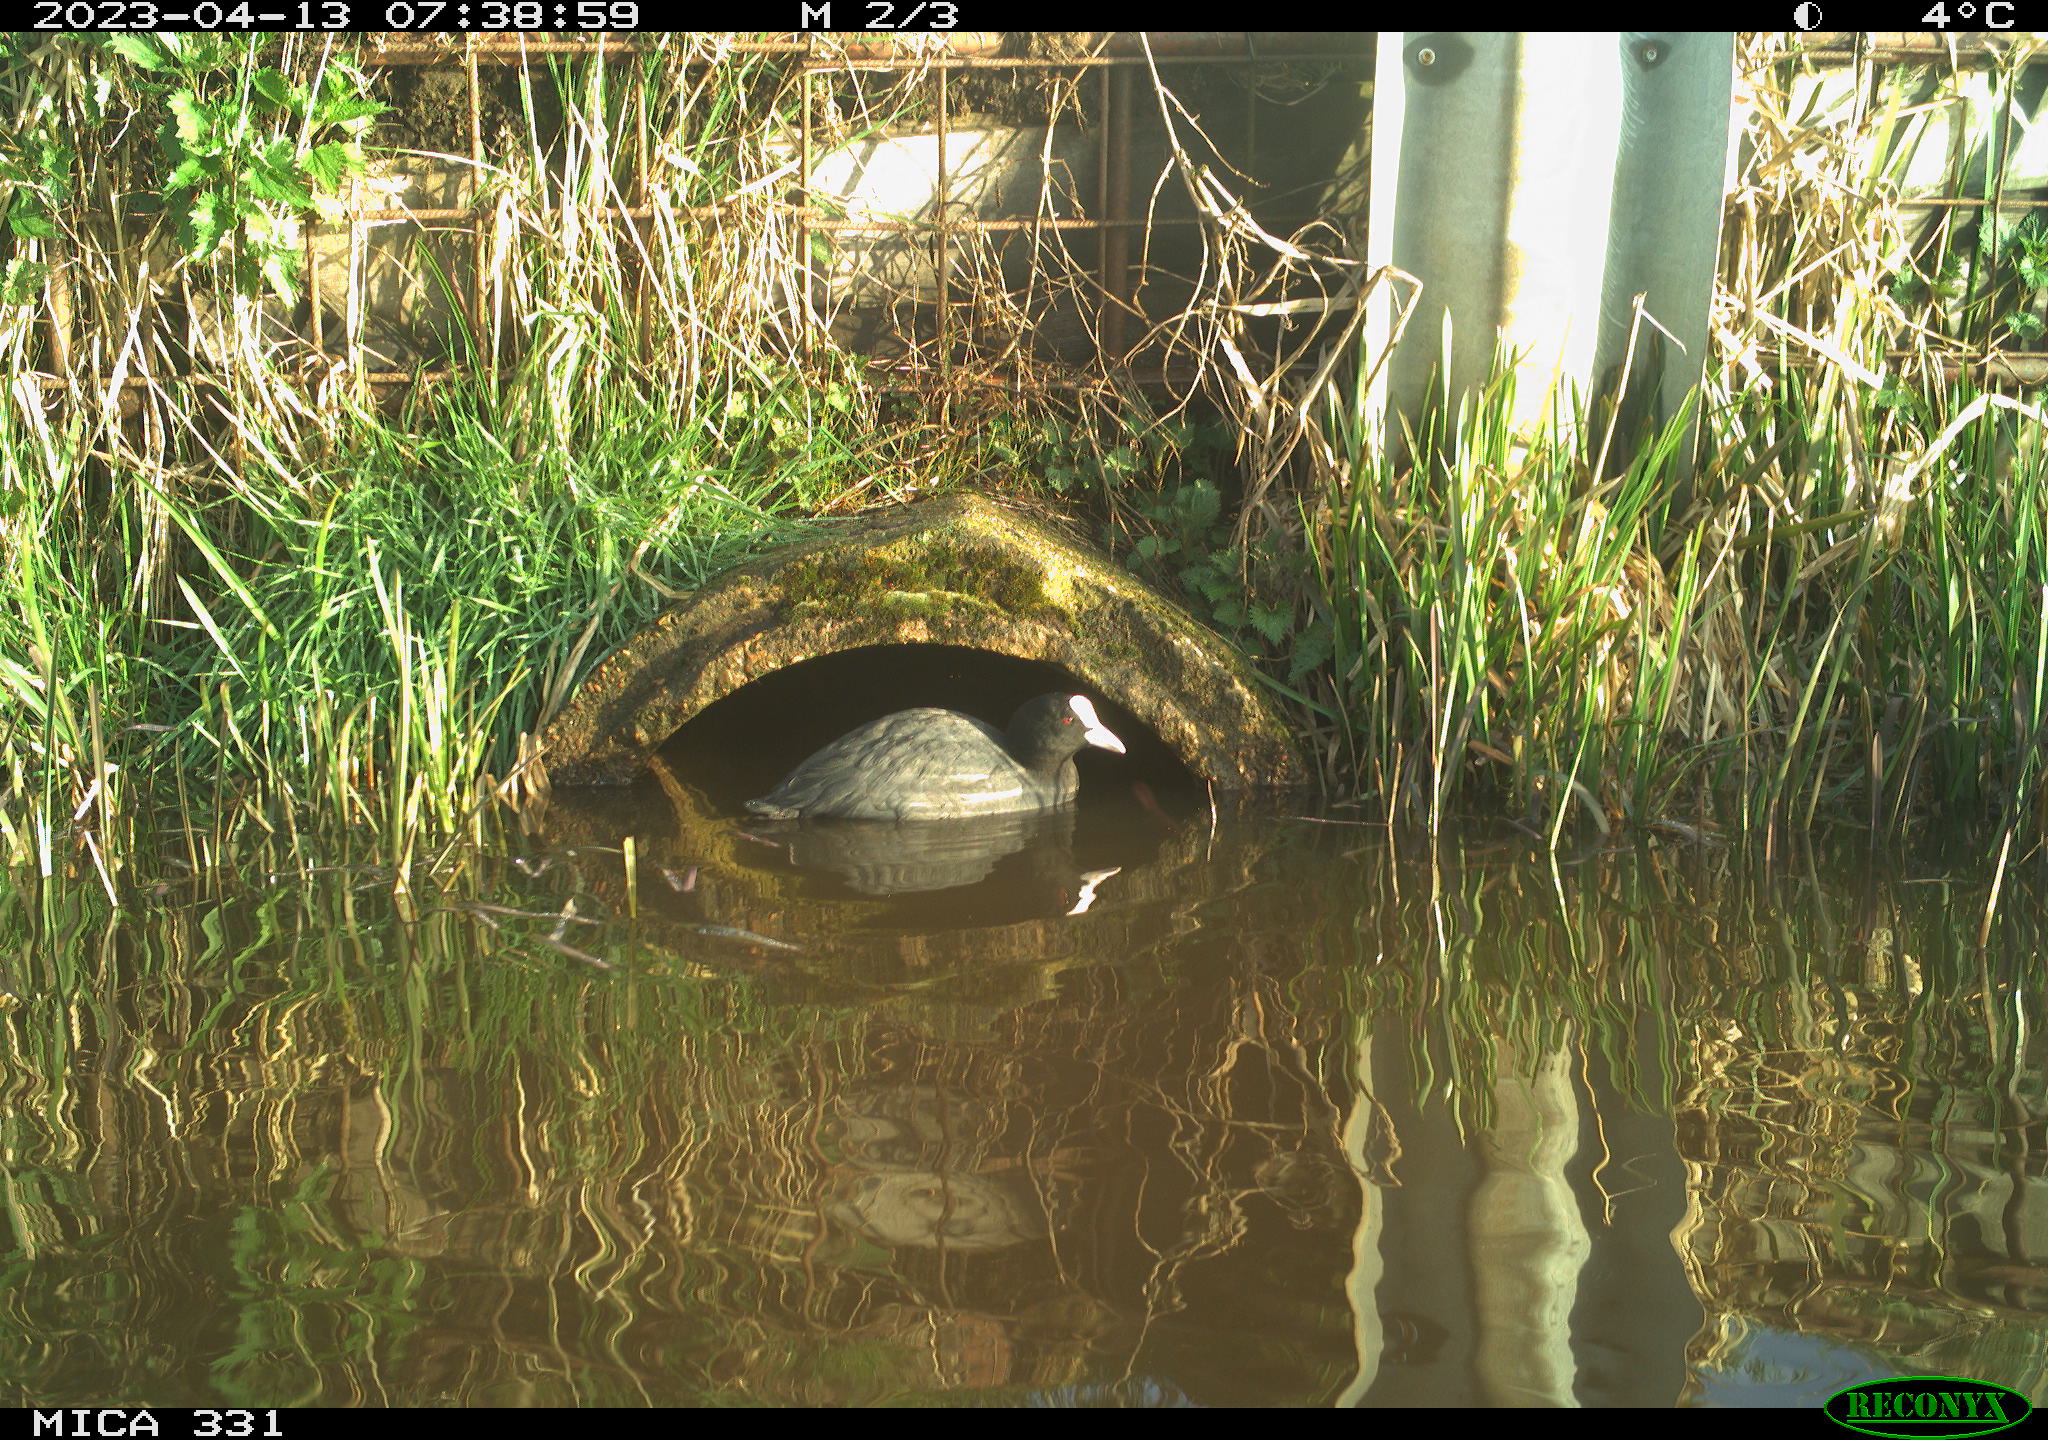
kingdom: Animalia
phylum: Chordata
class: Aves
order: Gruiformes
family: Rallidae
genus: Fulica
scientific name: Fulica atra
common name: Eurasian coot
